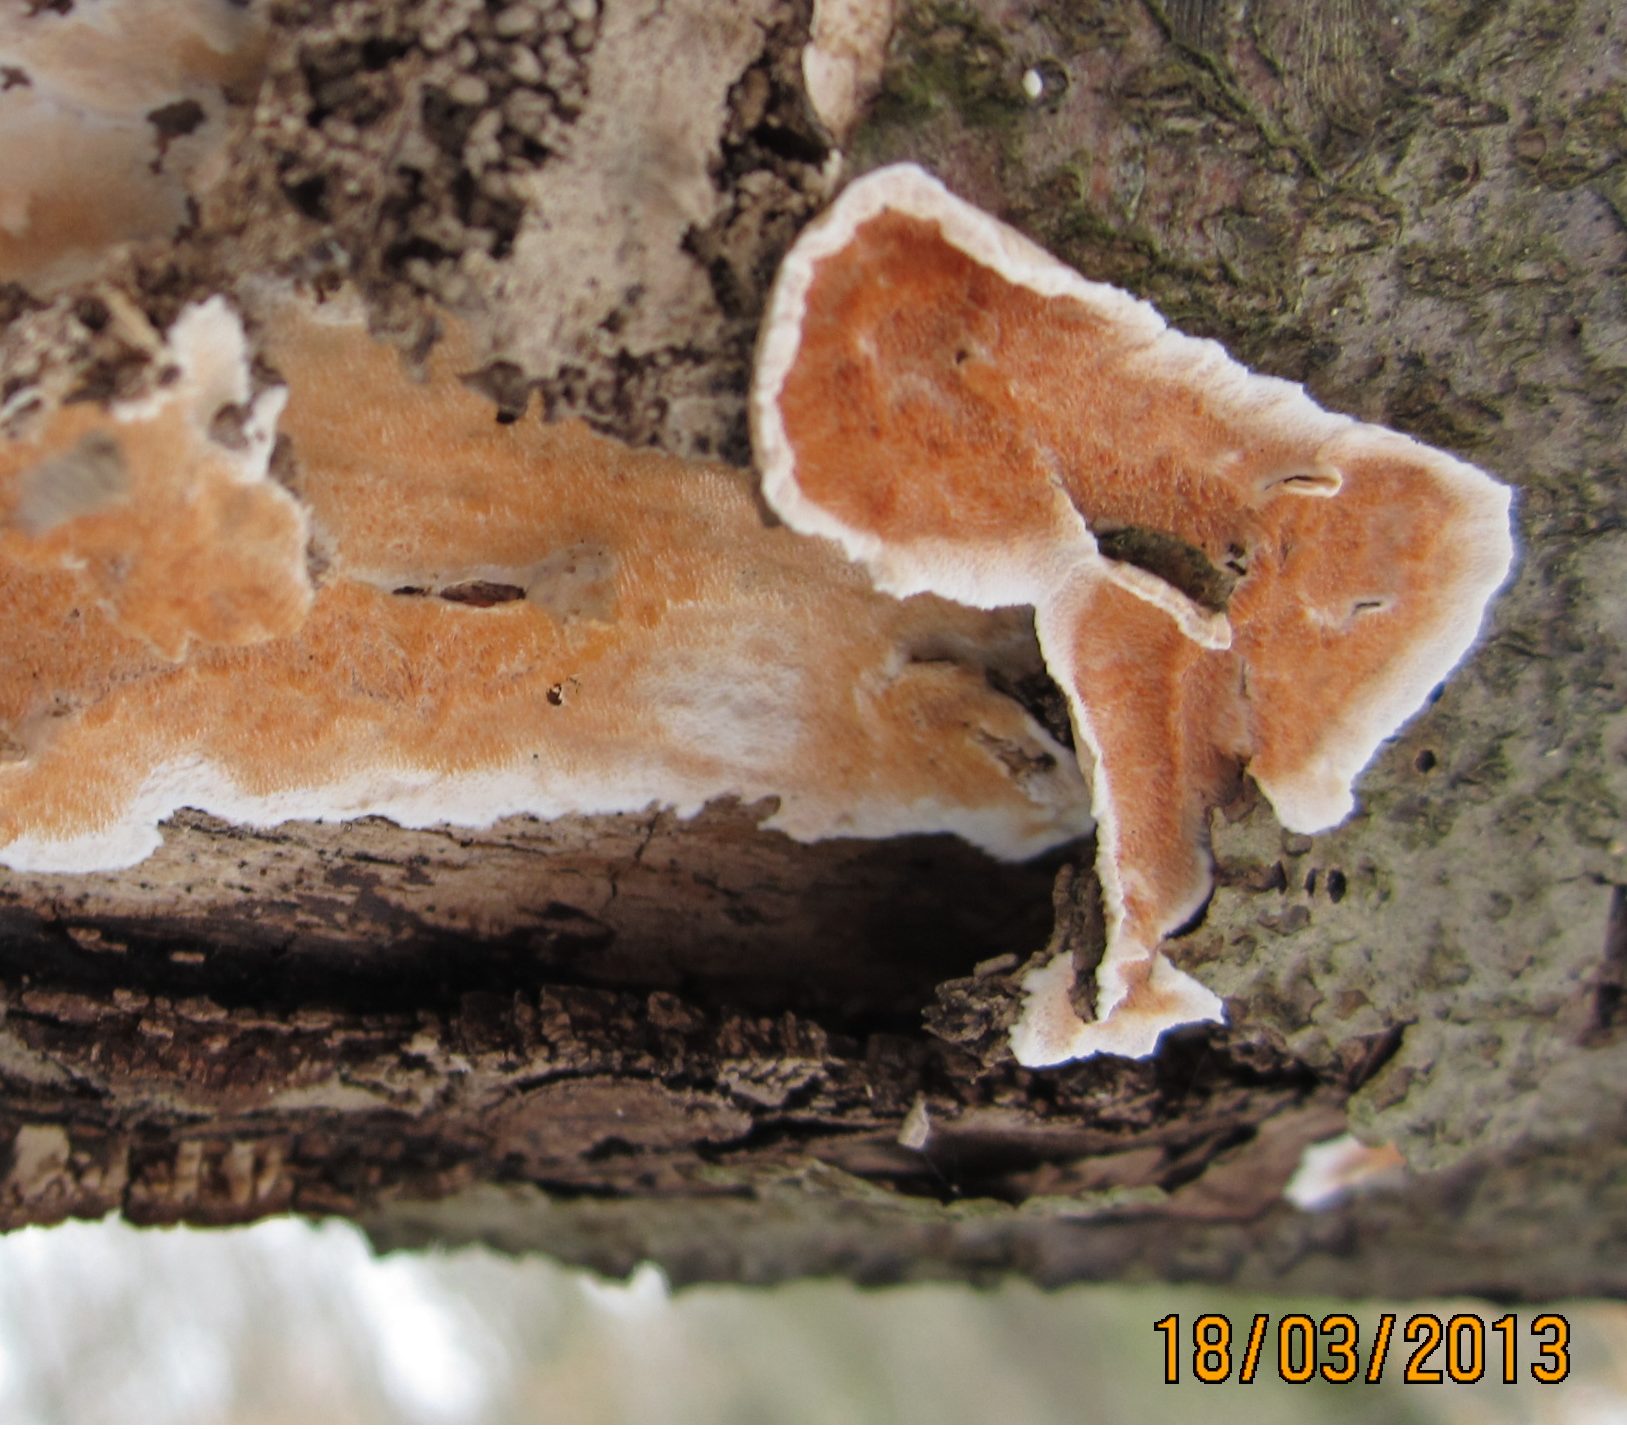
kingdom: Fungi
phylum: Basidiomycota
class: Agaricomycetes
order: Polyporales
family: Steccherinaceae
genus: Steccherinum
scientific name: Steccherinum ochraceum
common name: almindelig skønpig
